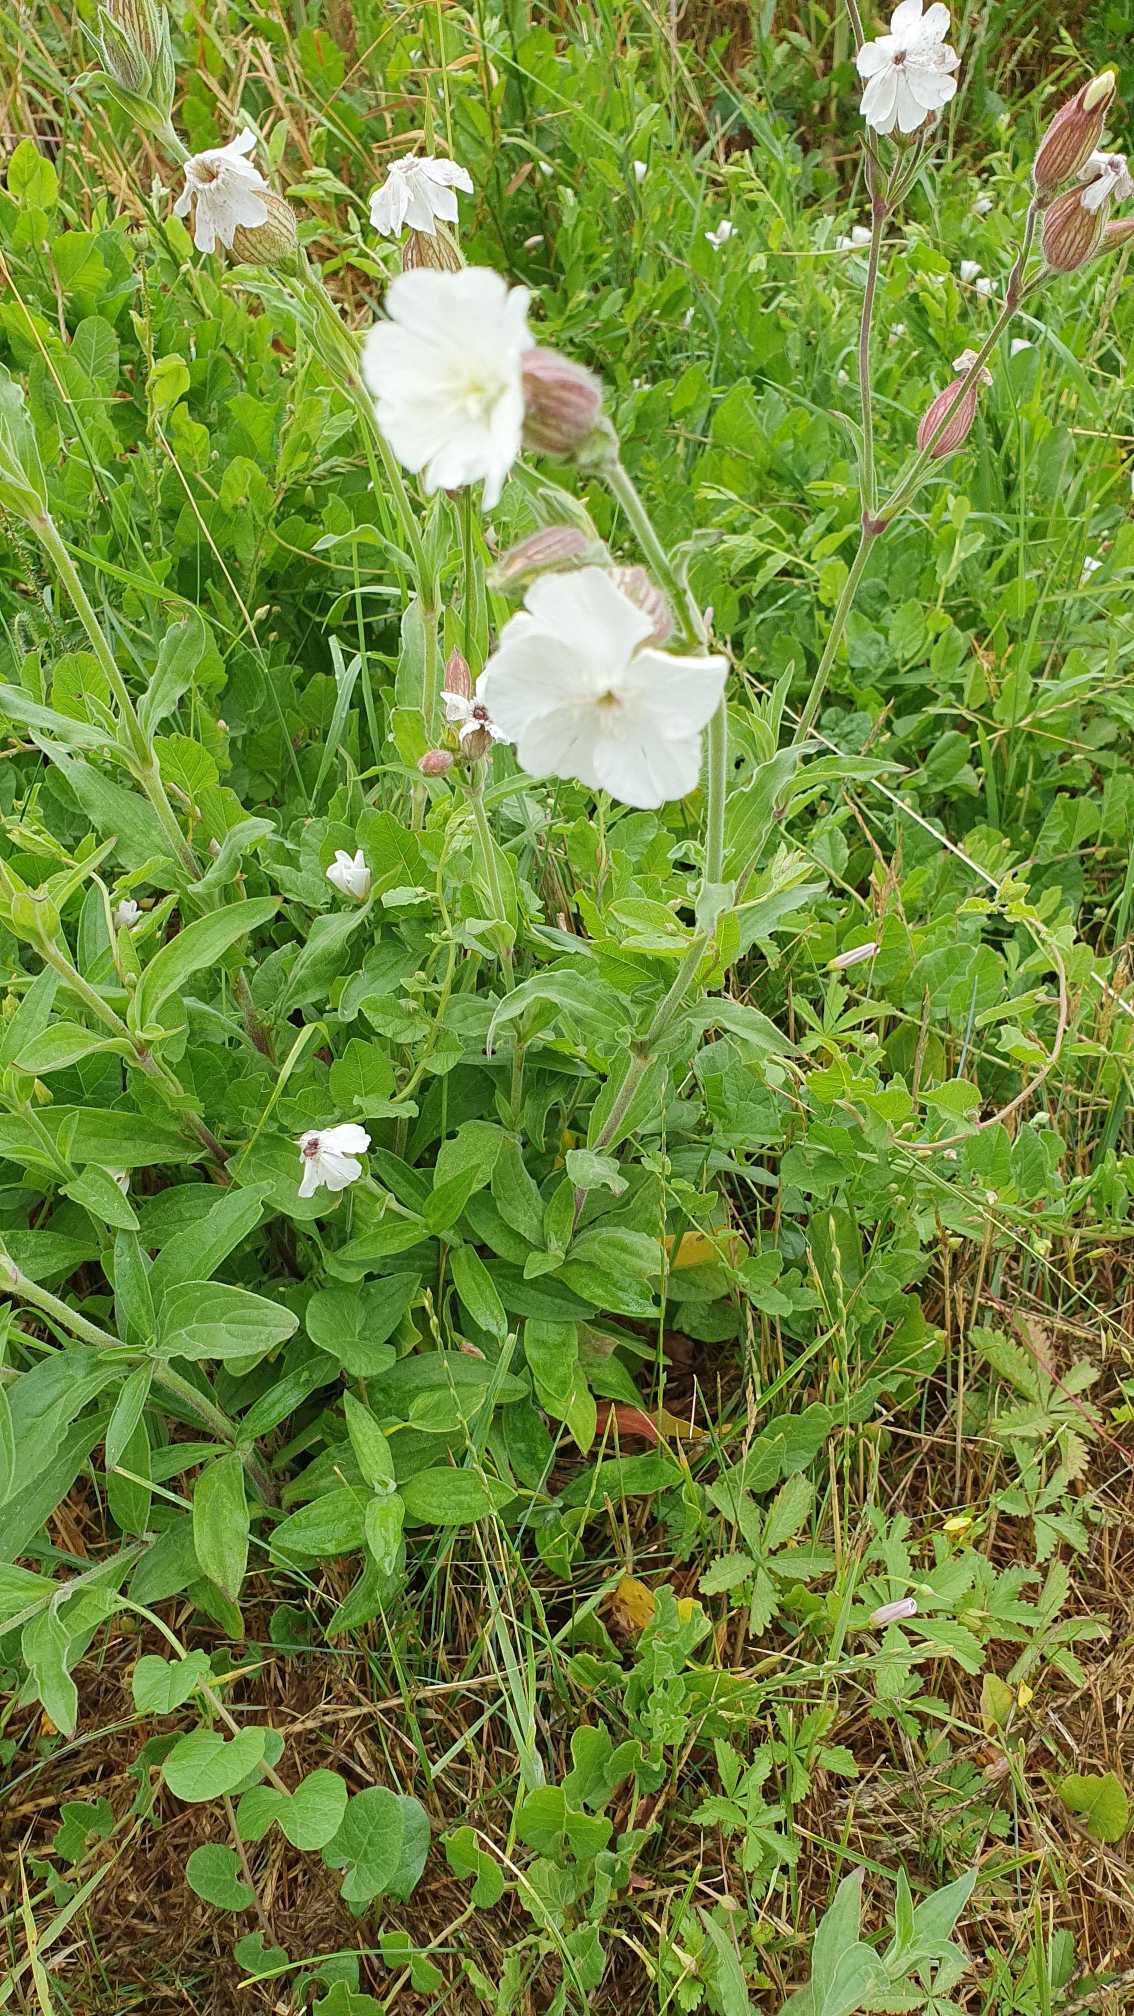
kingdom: Plantae
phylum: Tracheophyta
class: Magnoliopsida
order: Caryophyllales
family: Caryophyllaceae
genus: Silene
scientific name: Silene latifolia
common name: Aftenpragtstjerne
